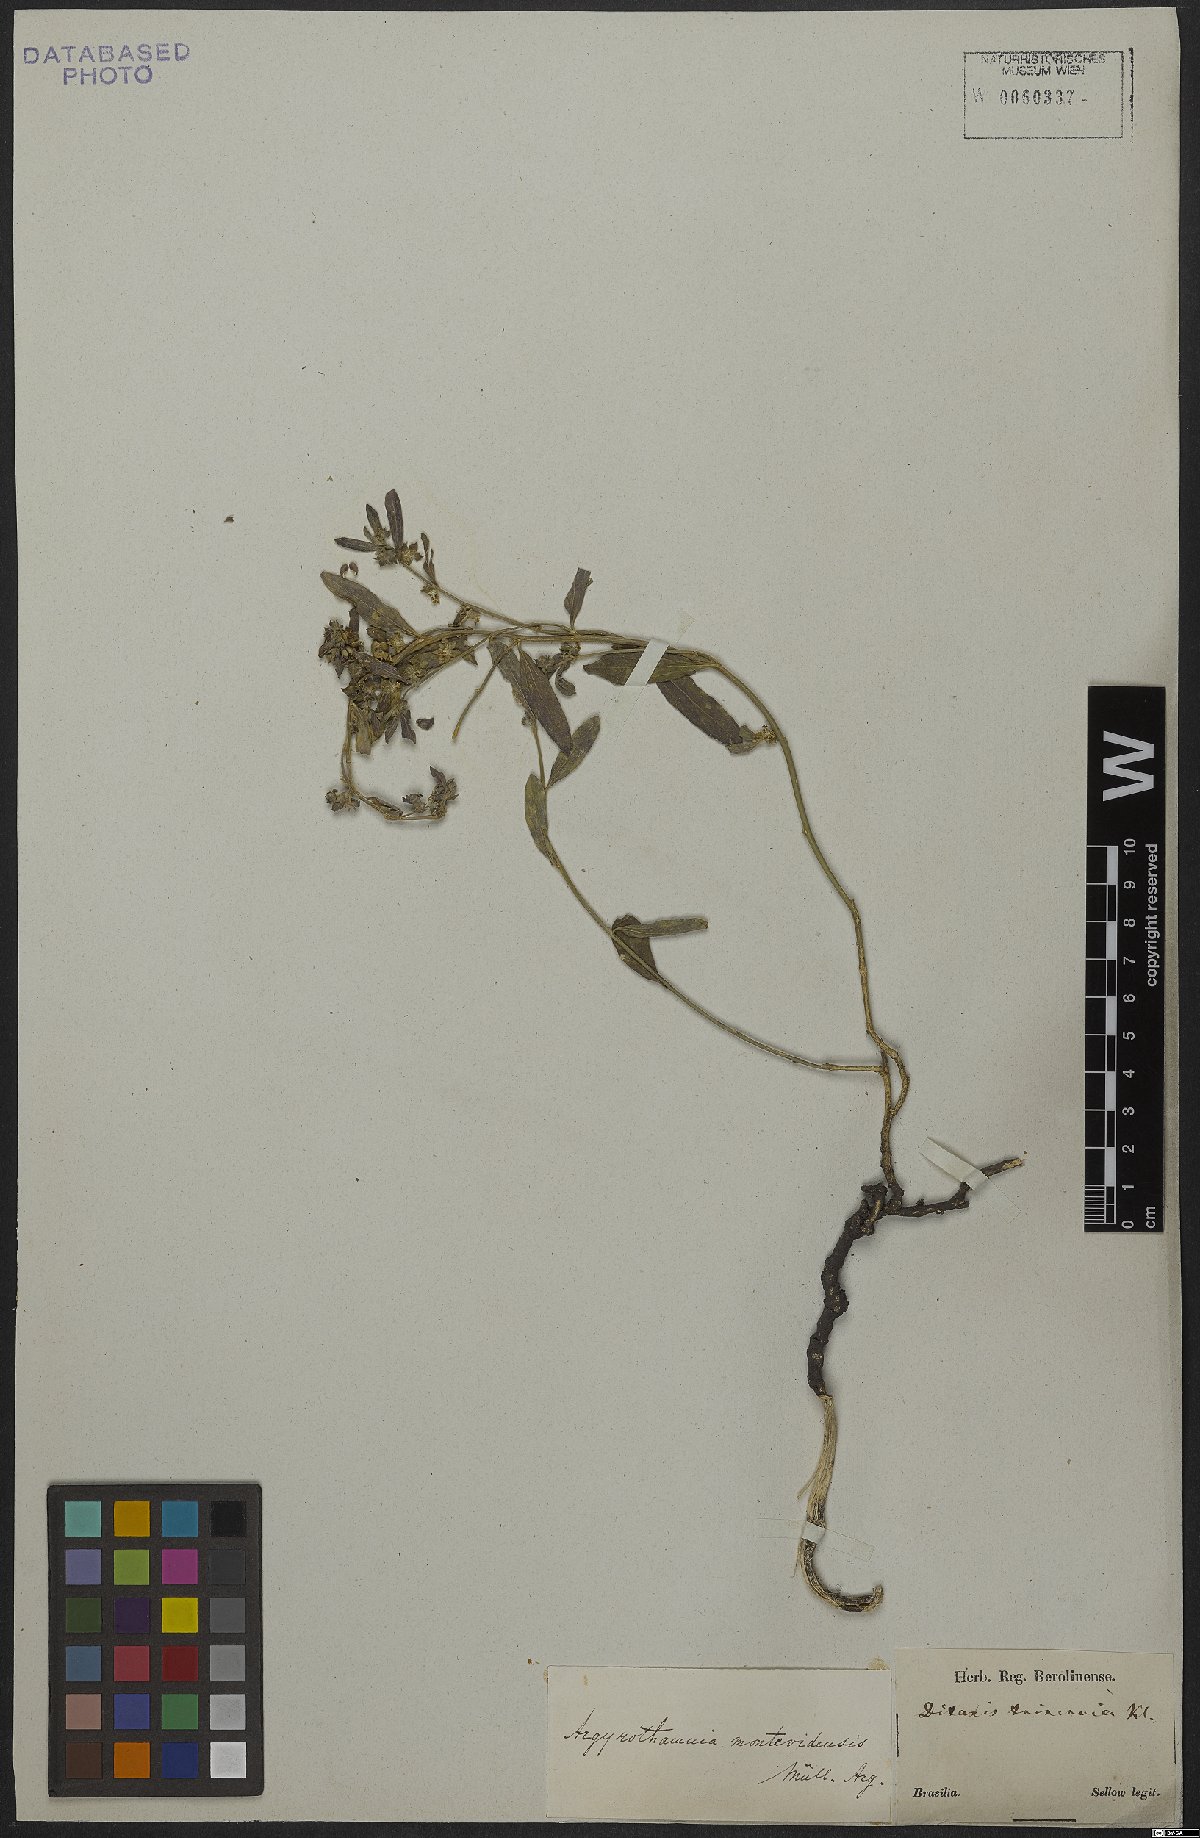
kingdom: Plantae
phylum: Tracheophyta
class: Magnoliopsida
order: Malpighiales
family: Euphorbiaceae
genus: Ditaxis
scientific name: Ditaxis montevidensis
